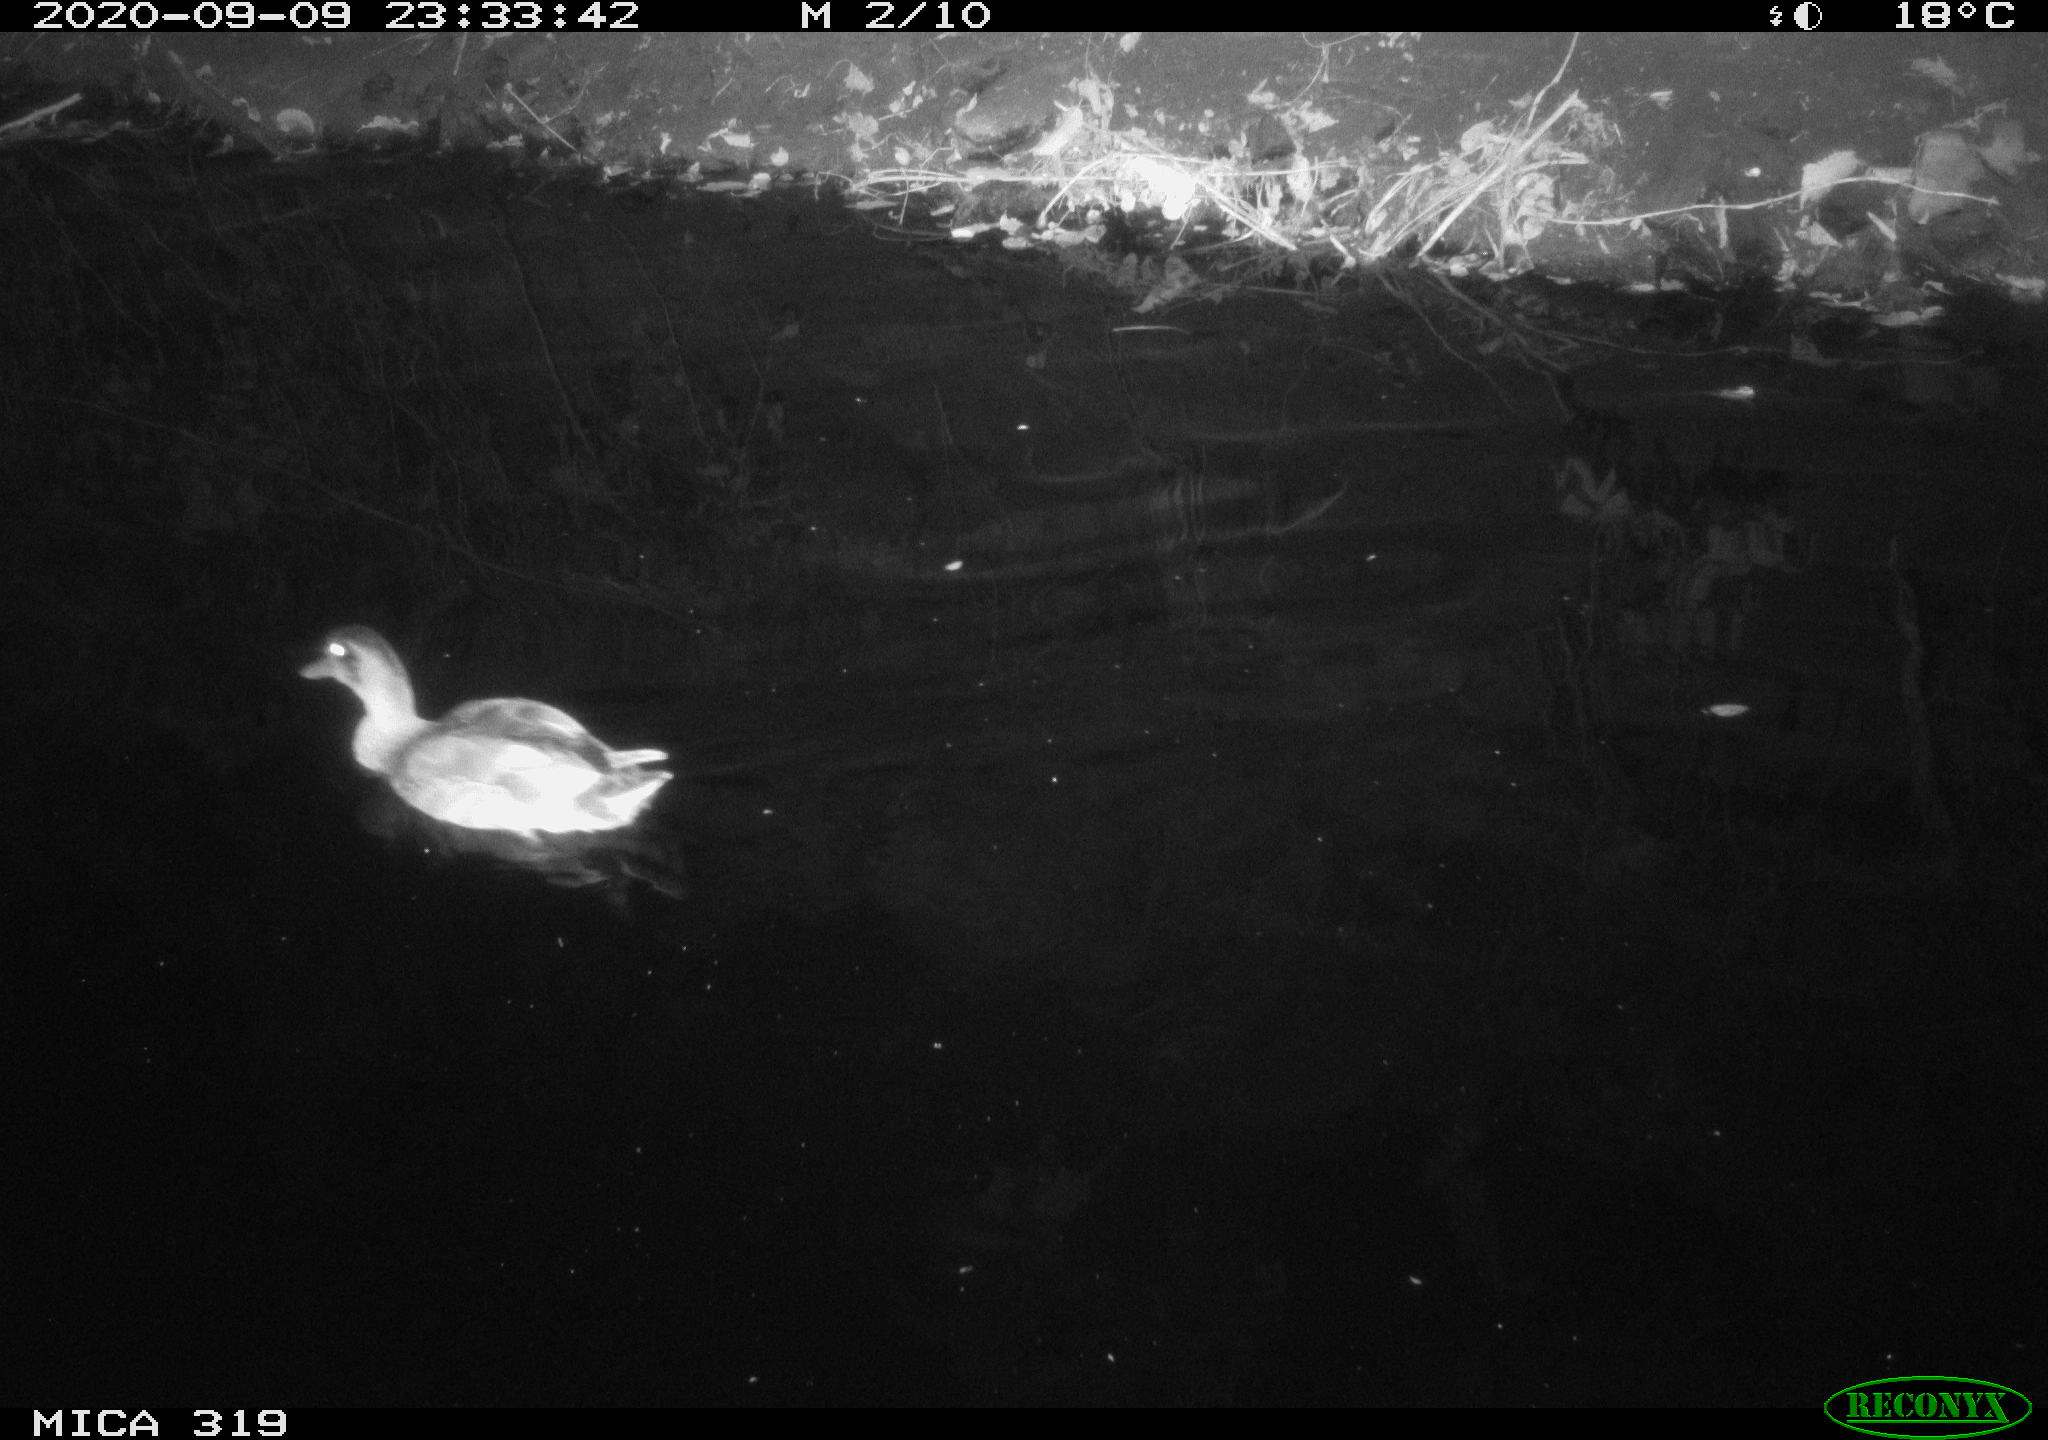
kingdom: Animalia
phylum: Chordata
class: Aves
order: Anseriformes
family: Anatidae
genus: Anas
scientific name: Anas platyrhynchos
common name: Mallard
